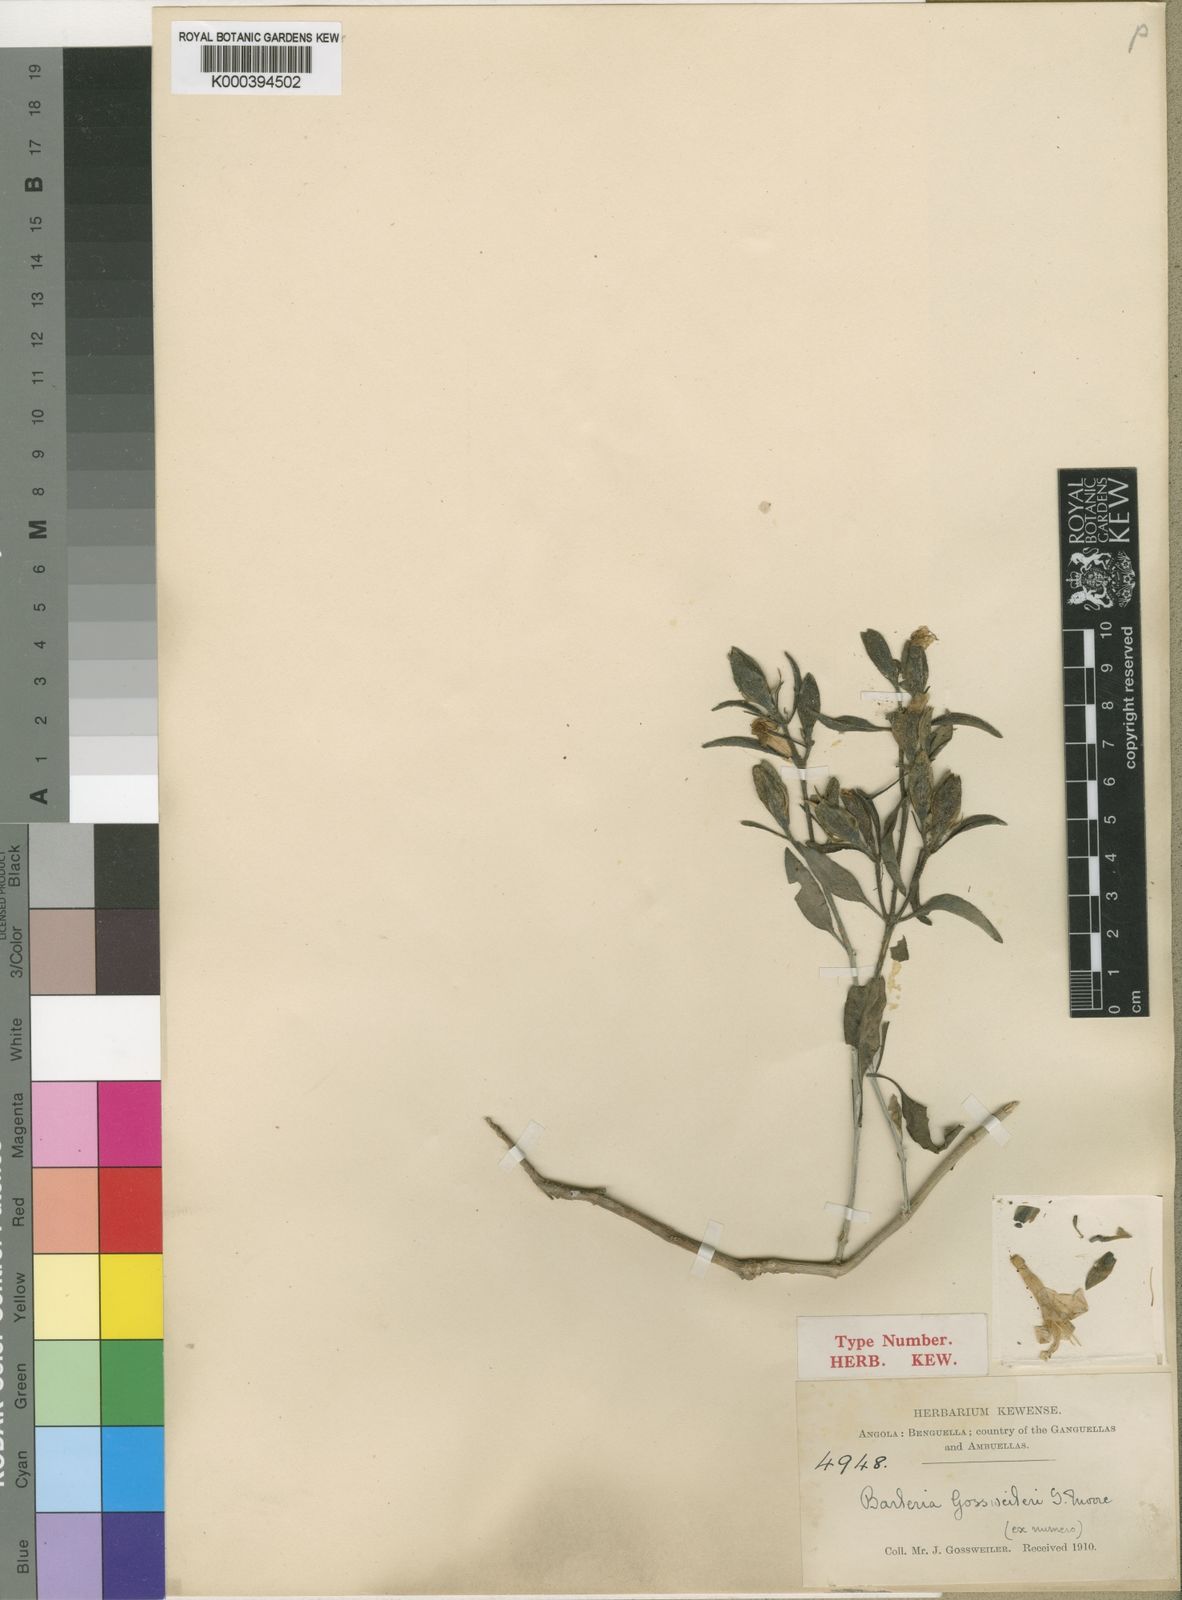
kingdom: Plantae
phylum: Tracheophyta
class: Magnoliopsida
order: Lamiales
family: Acanthaceae
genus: Barleria
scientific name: Barleria lancifolia
